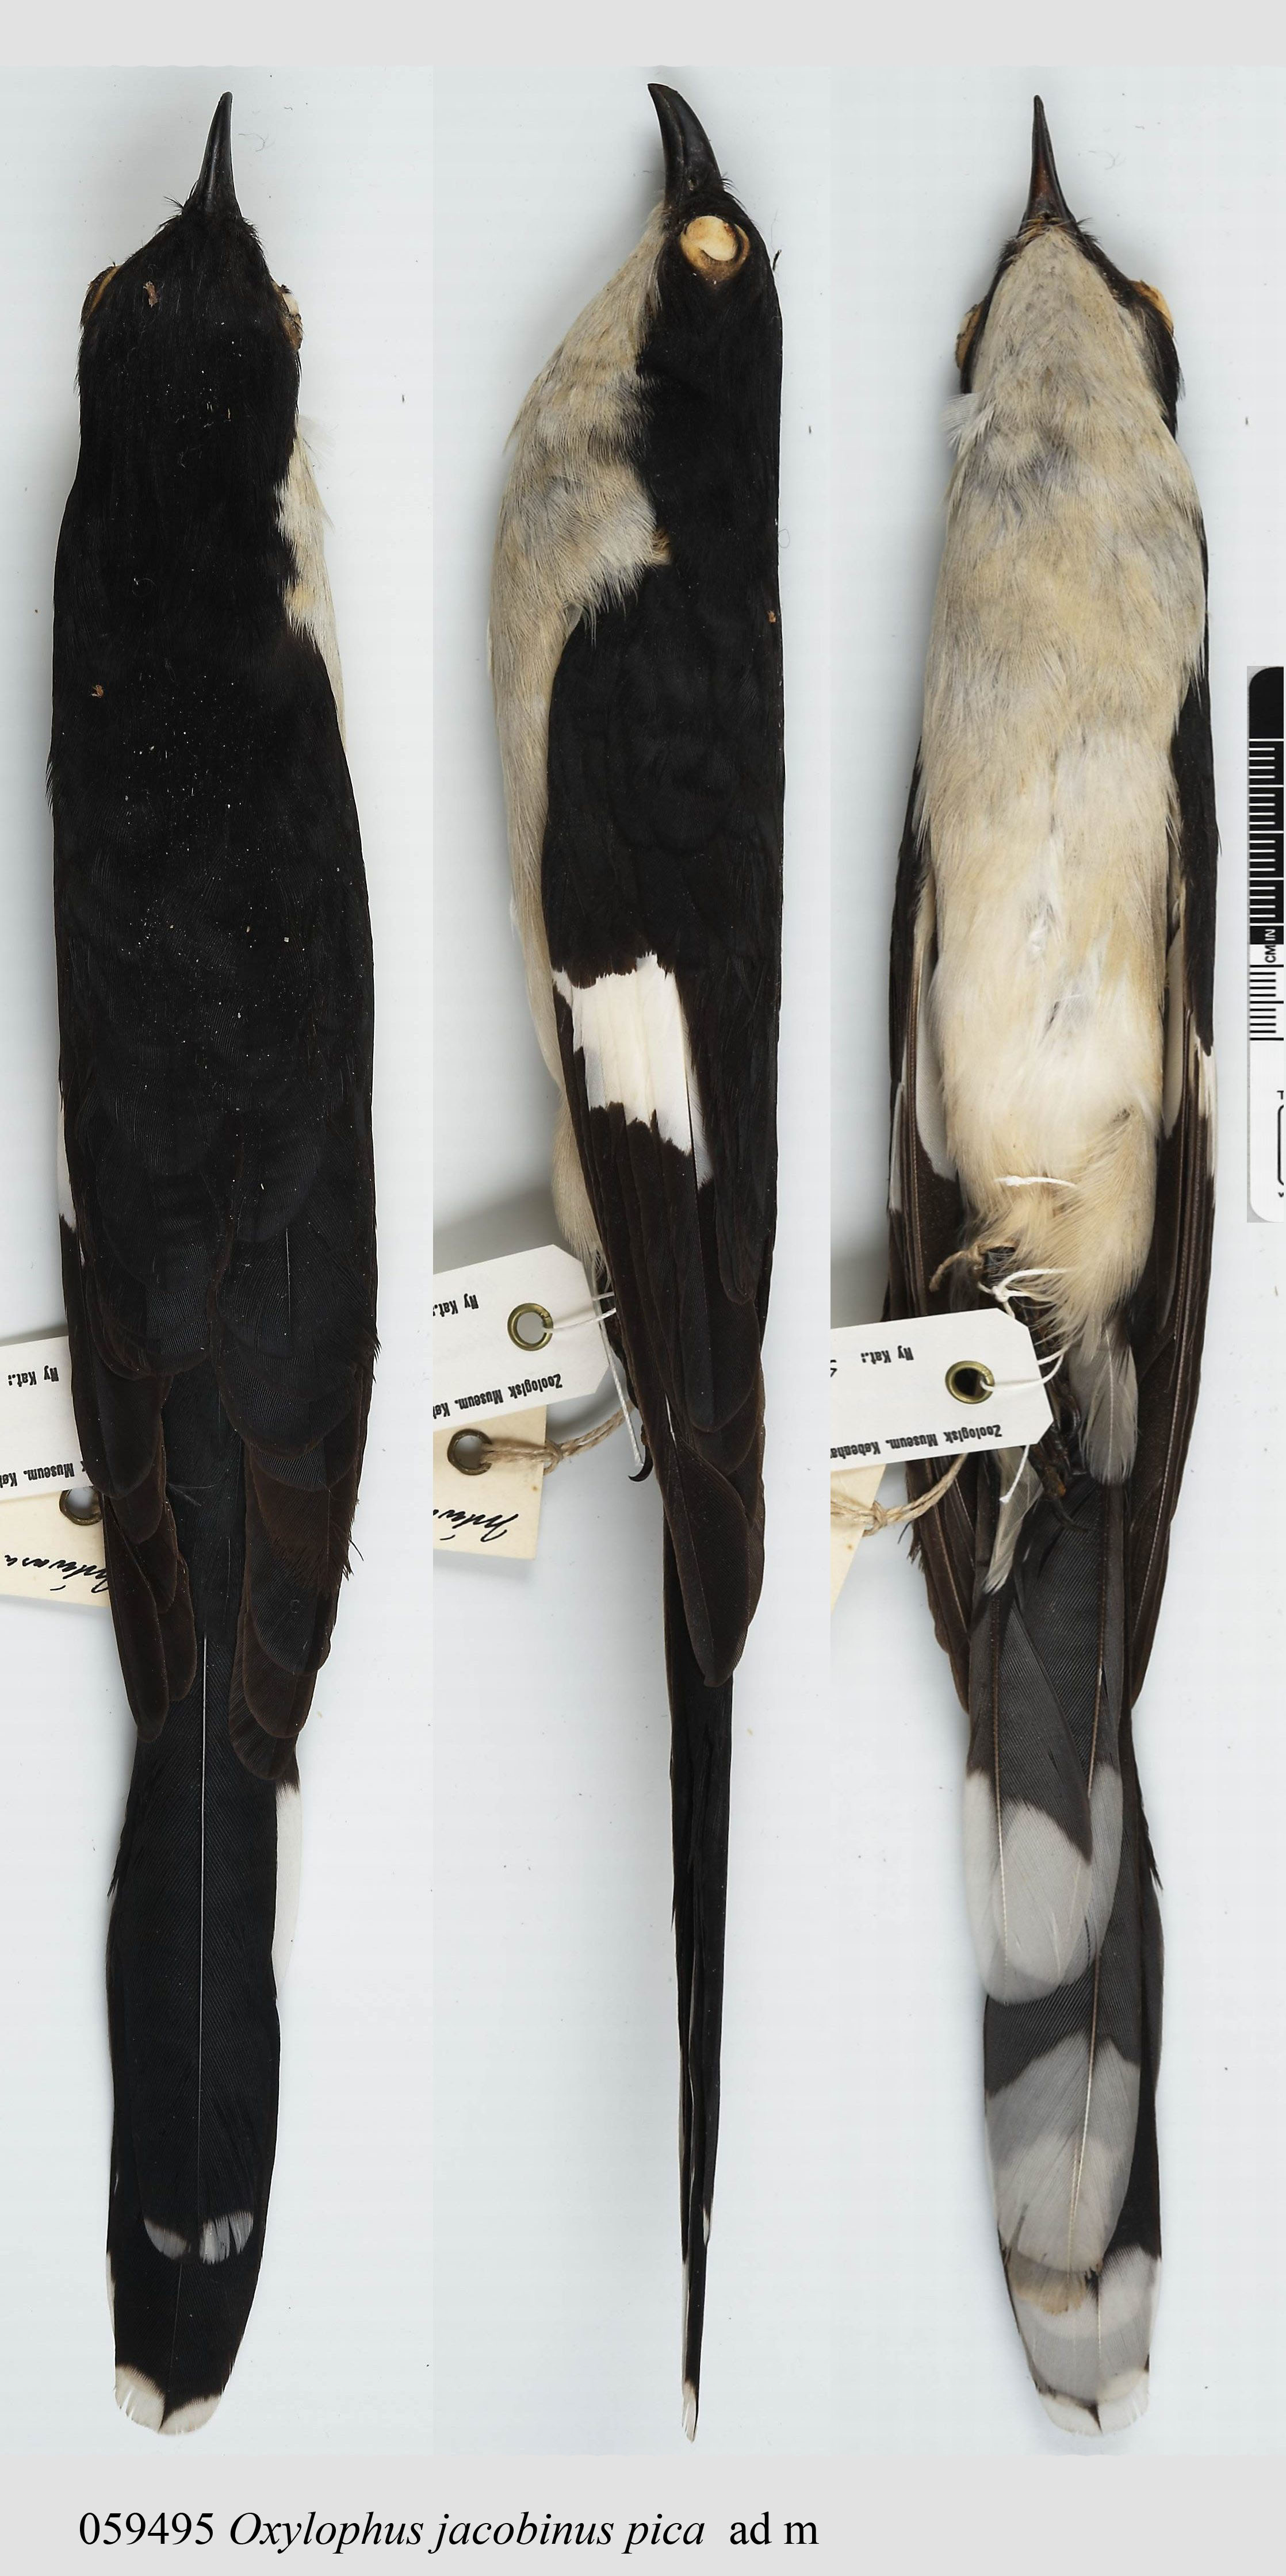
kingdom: Animalia
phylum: Chordata
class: Aves
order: Cuculiformes
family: Cuculidae
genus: Clamator
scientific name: Clamator jacobinus
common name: Jacobin cuckoo
